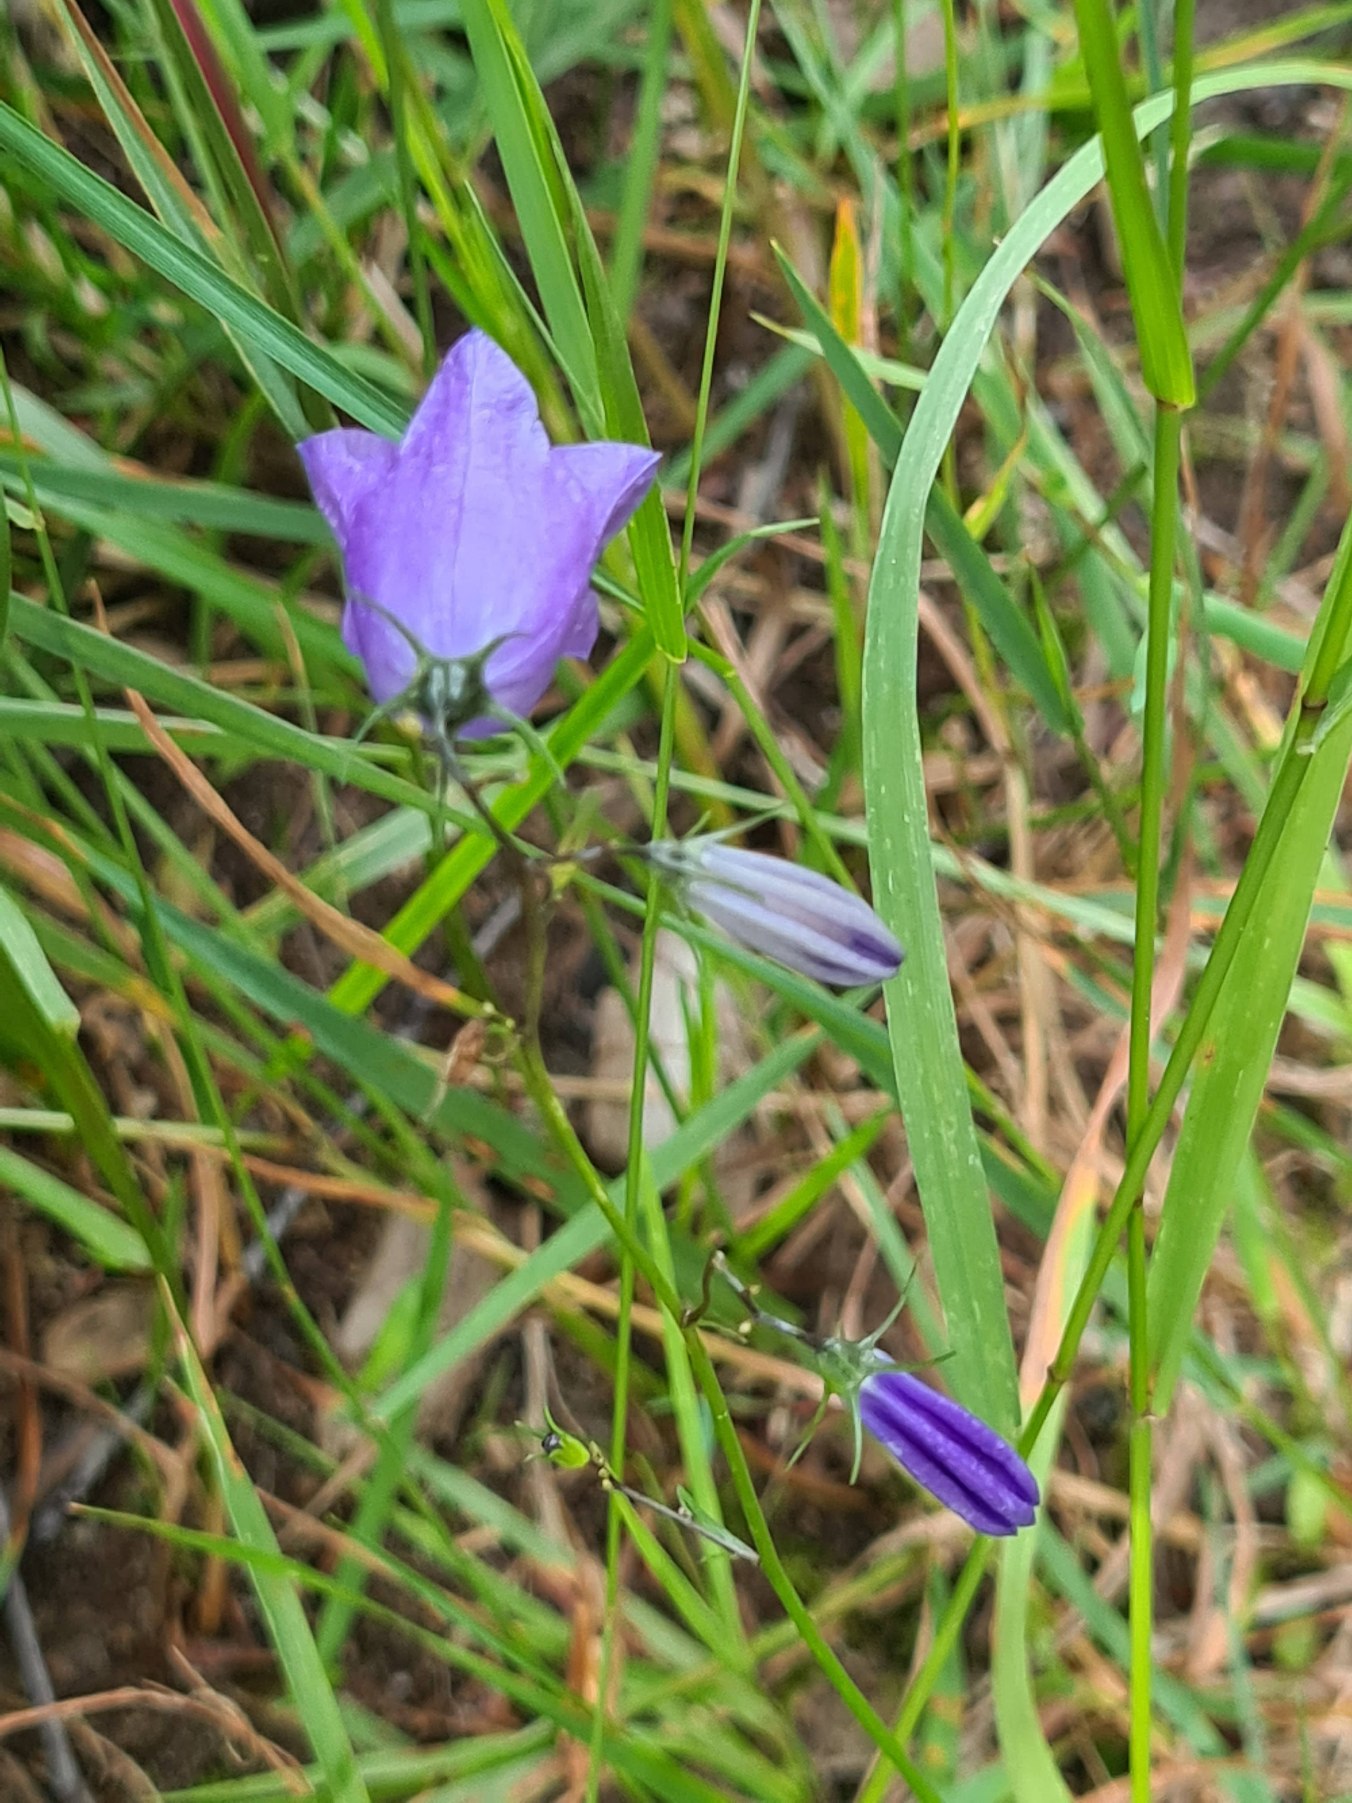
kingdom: Plantae
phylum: Tracheophyta
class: Magnoliopsida
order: Asterales
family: Campanulaceae
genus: Campanula
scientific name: Campanula rotundifolia
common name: Liden klokke
